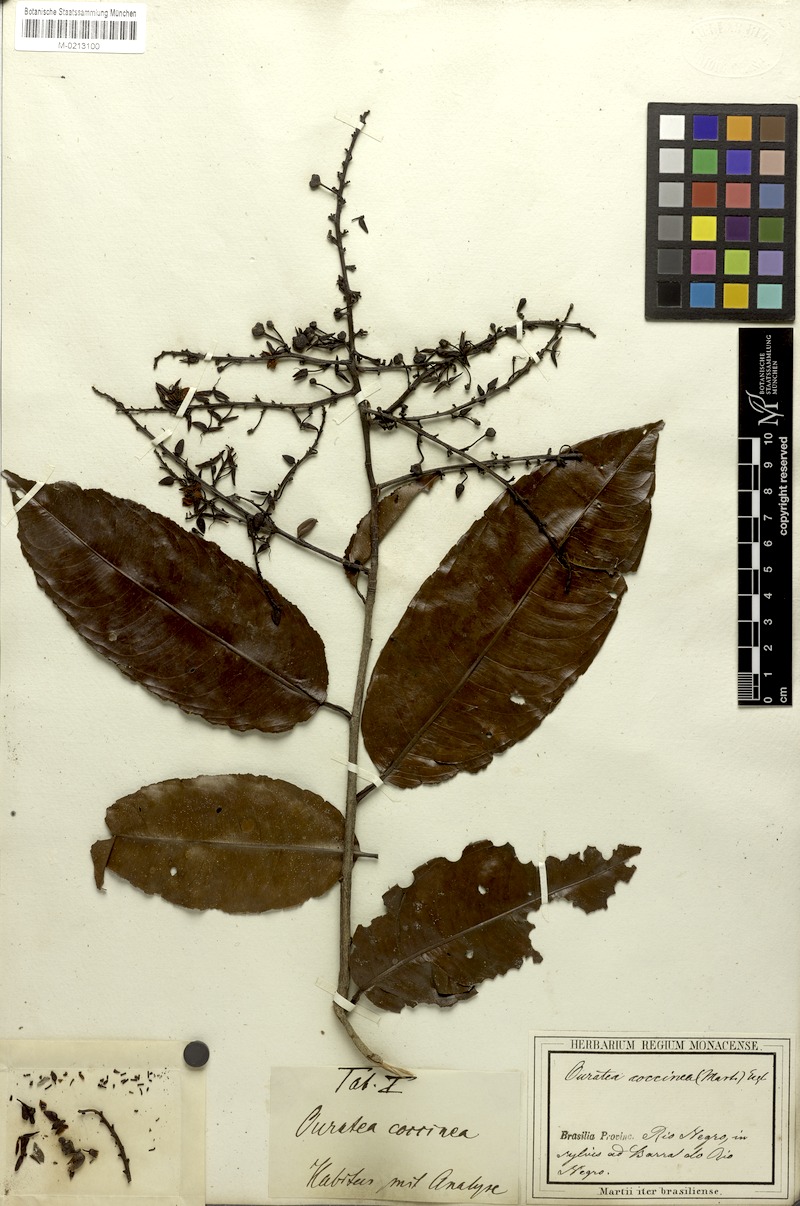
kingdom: Plantae
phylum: Tracheophyta
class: Magnoliopsida
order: Malpighiales
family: Ochnaceae
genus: Ouratea
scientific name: Ouratea coccinea
